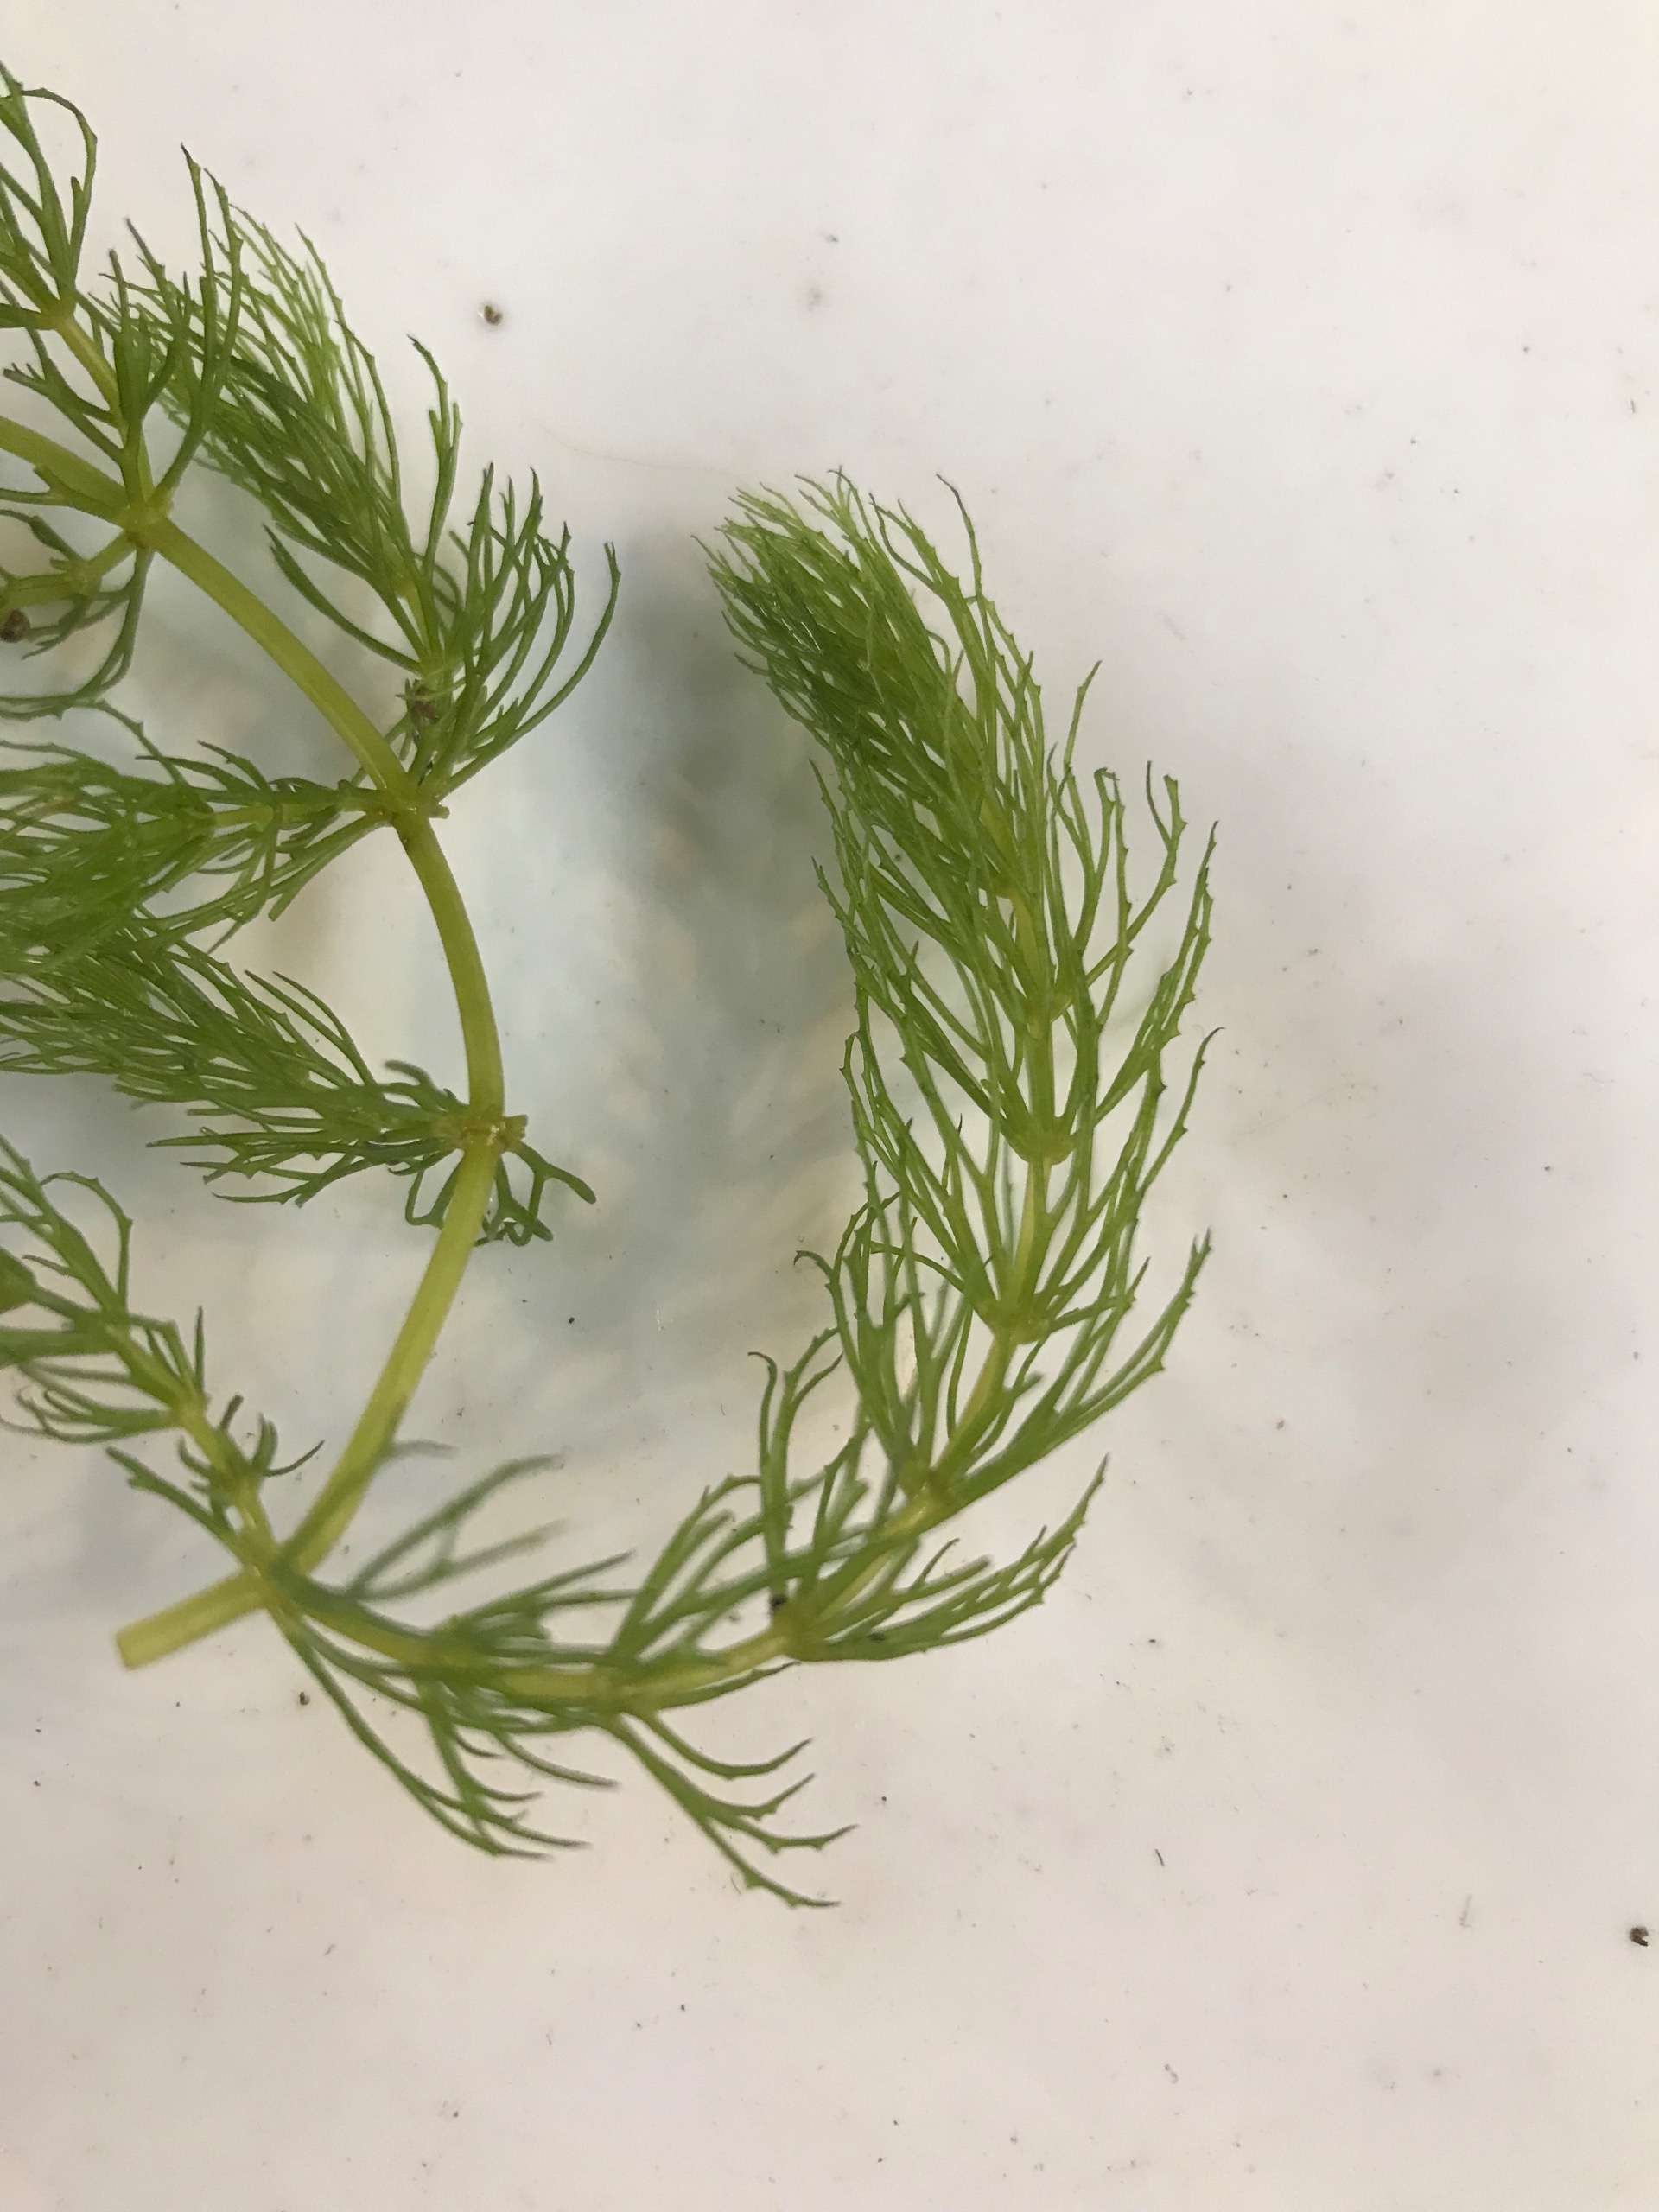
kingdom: Plantae
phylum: Tracheophyta
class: Magnoliopsida
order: Ceratophyllales
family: Ceratophyllaceae
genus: Ceratophyllum
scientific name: Ceratophyllum demersum
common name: Tornfrøet hornblad
